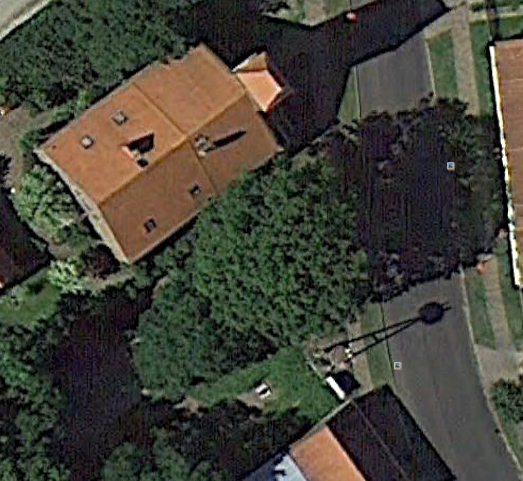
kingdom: Animalia
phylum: Chordata
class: Aves
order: Ciconiiformes
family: Ciconiidae
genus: Ciconia
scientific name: Ciconia ciconia
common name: White stork
